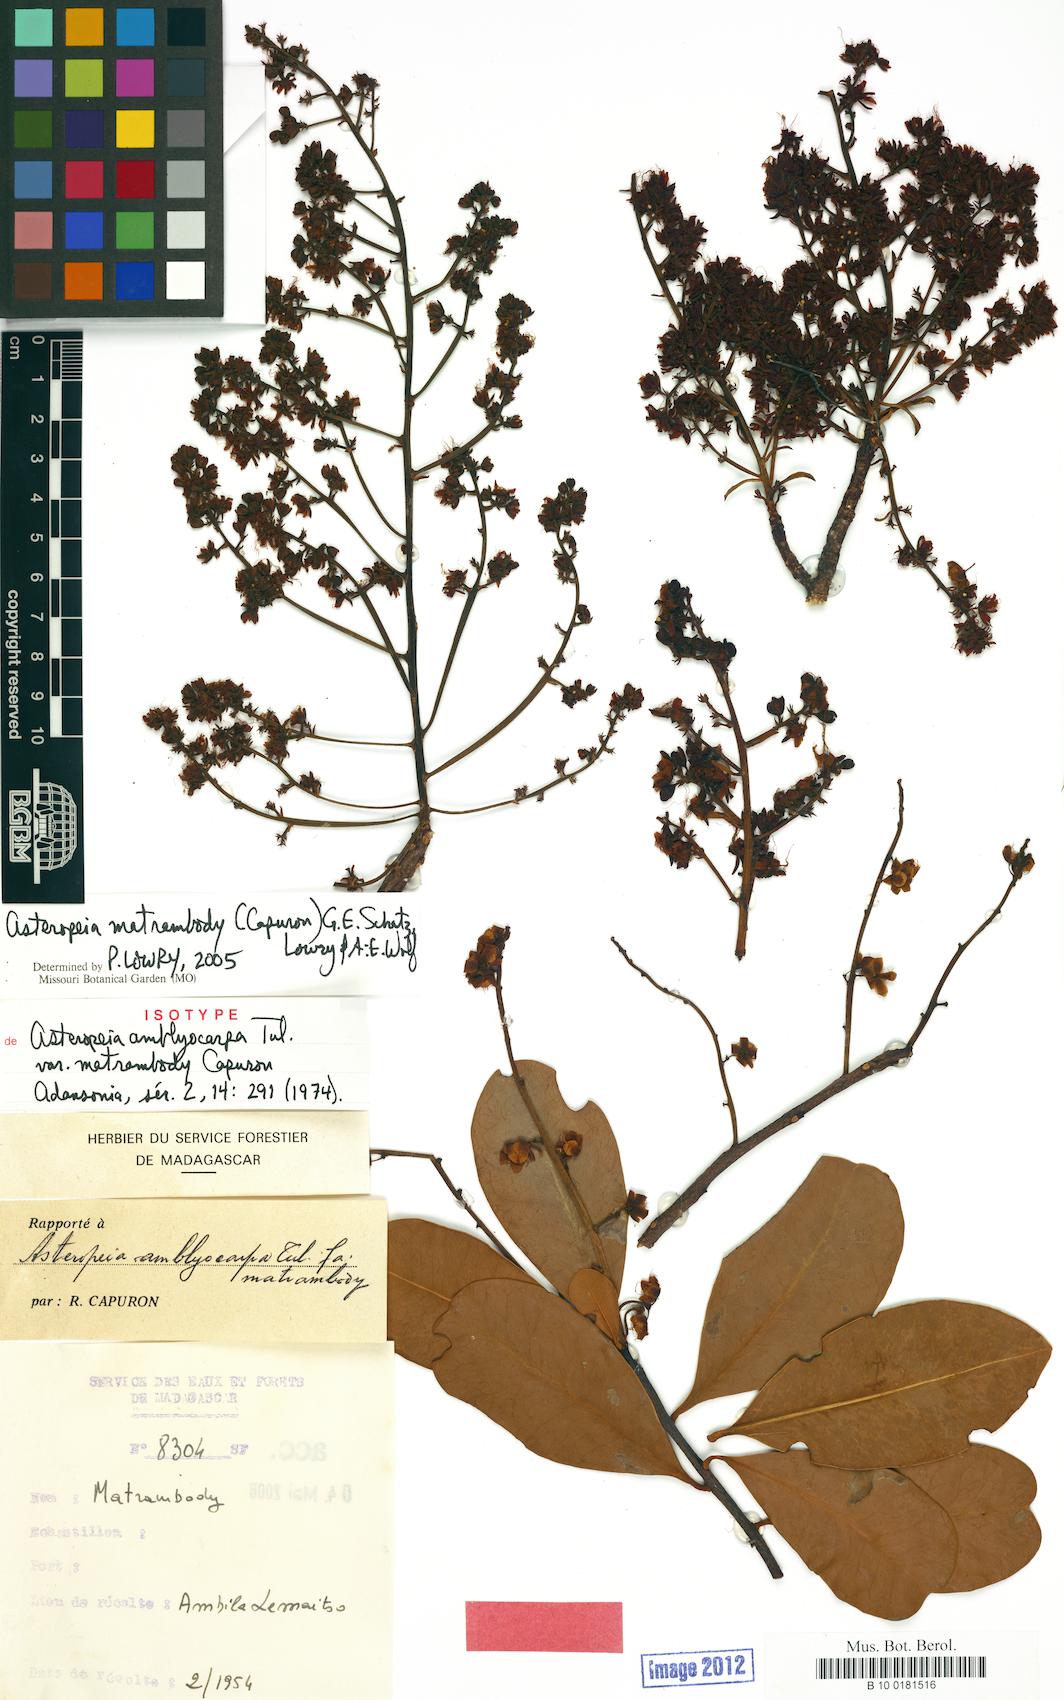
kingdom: Plantae
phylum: Tracheophyta
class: Magnoliopsida
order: Caryophyllales
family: Asteropeiaceae
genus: Asteropeia
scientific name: Asteropeia matrambody
